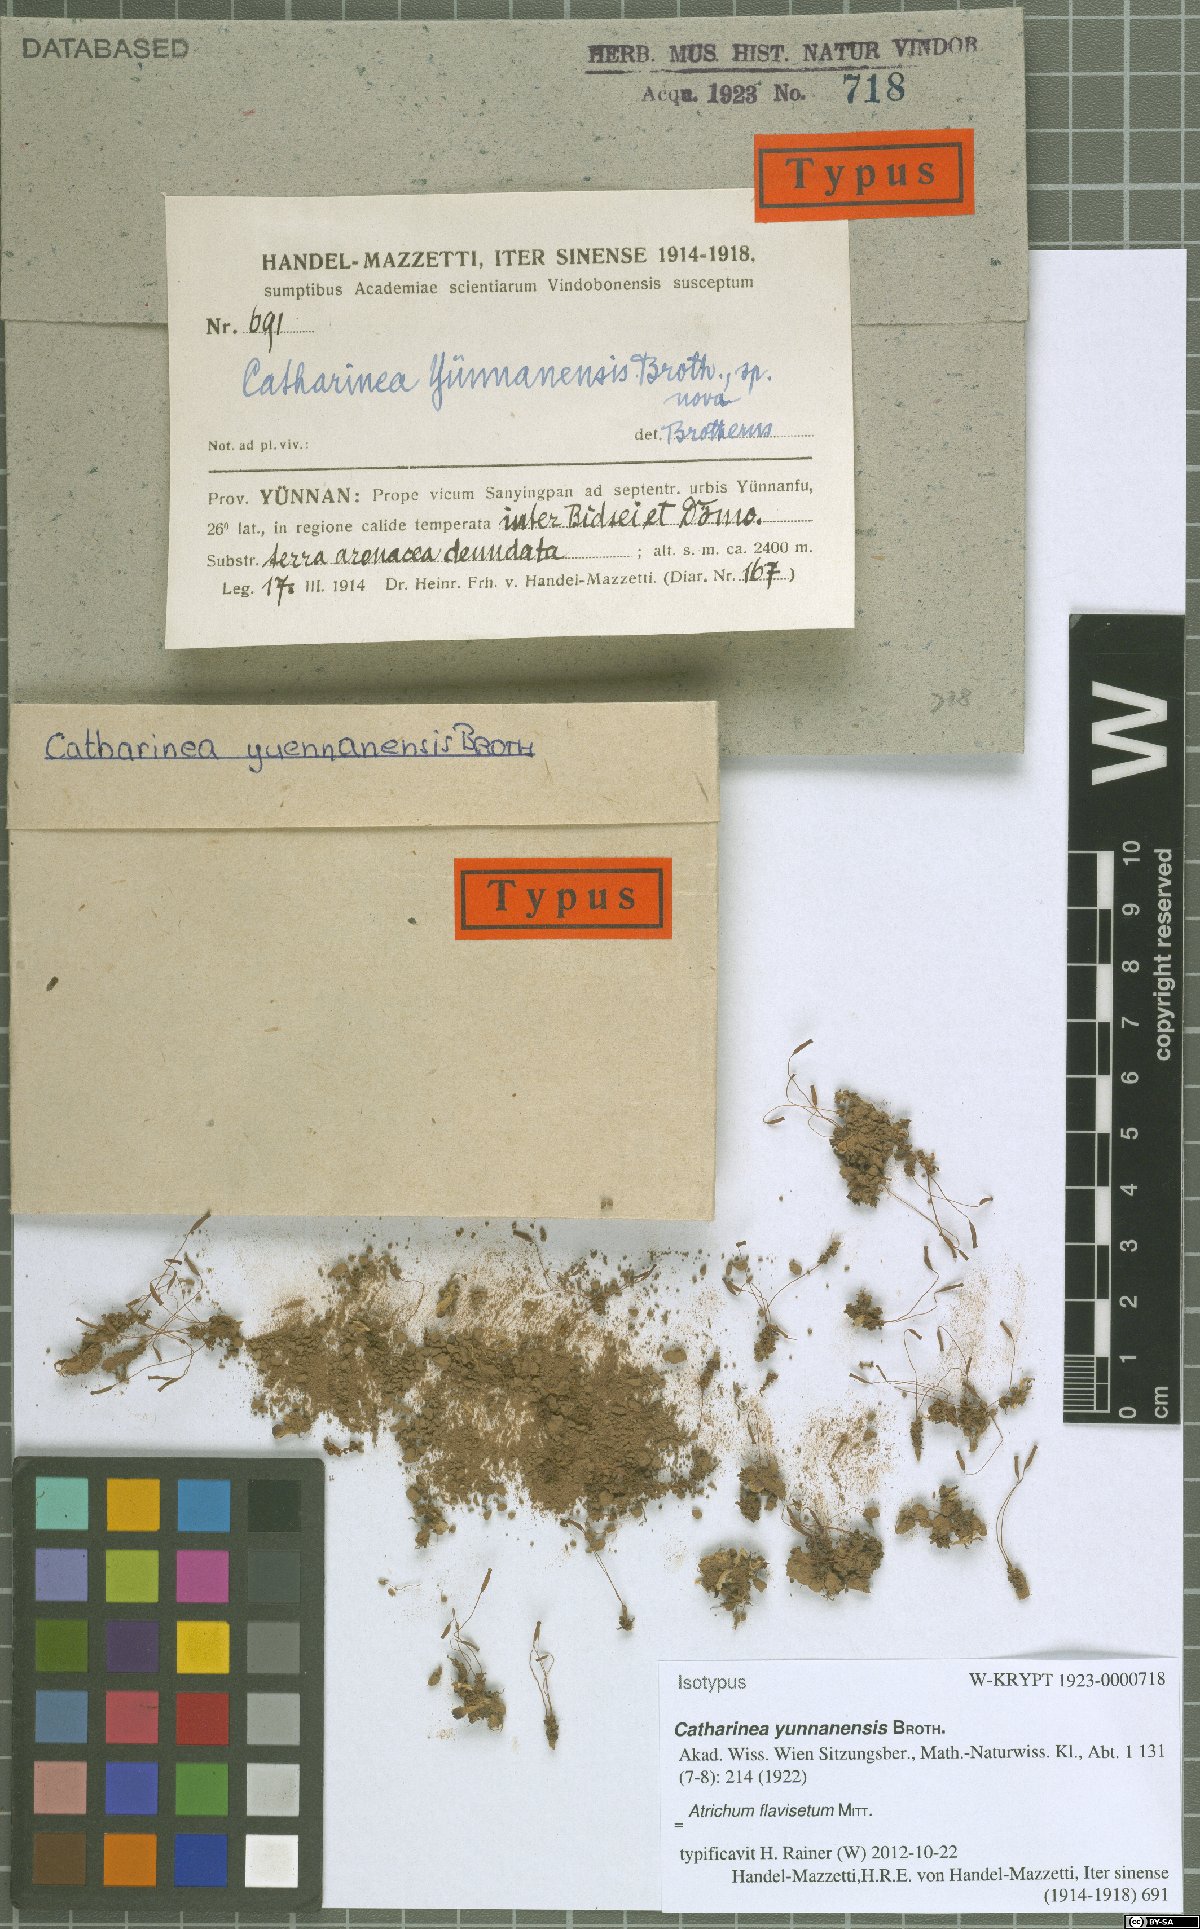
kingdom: Plantae
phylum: Bryophyta
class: Polytrichopsida
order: Polytrichales
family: Polytrichaceae
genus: Atrichum
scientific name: Atrichum undulatum
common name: Common smoothcap
